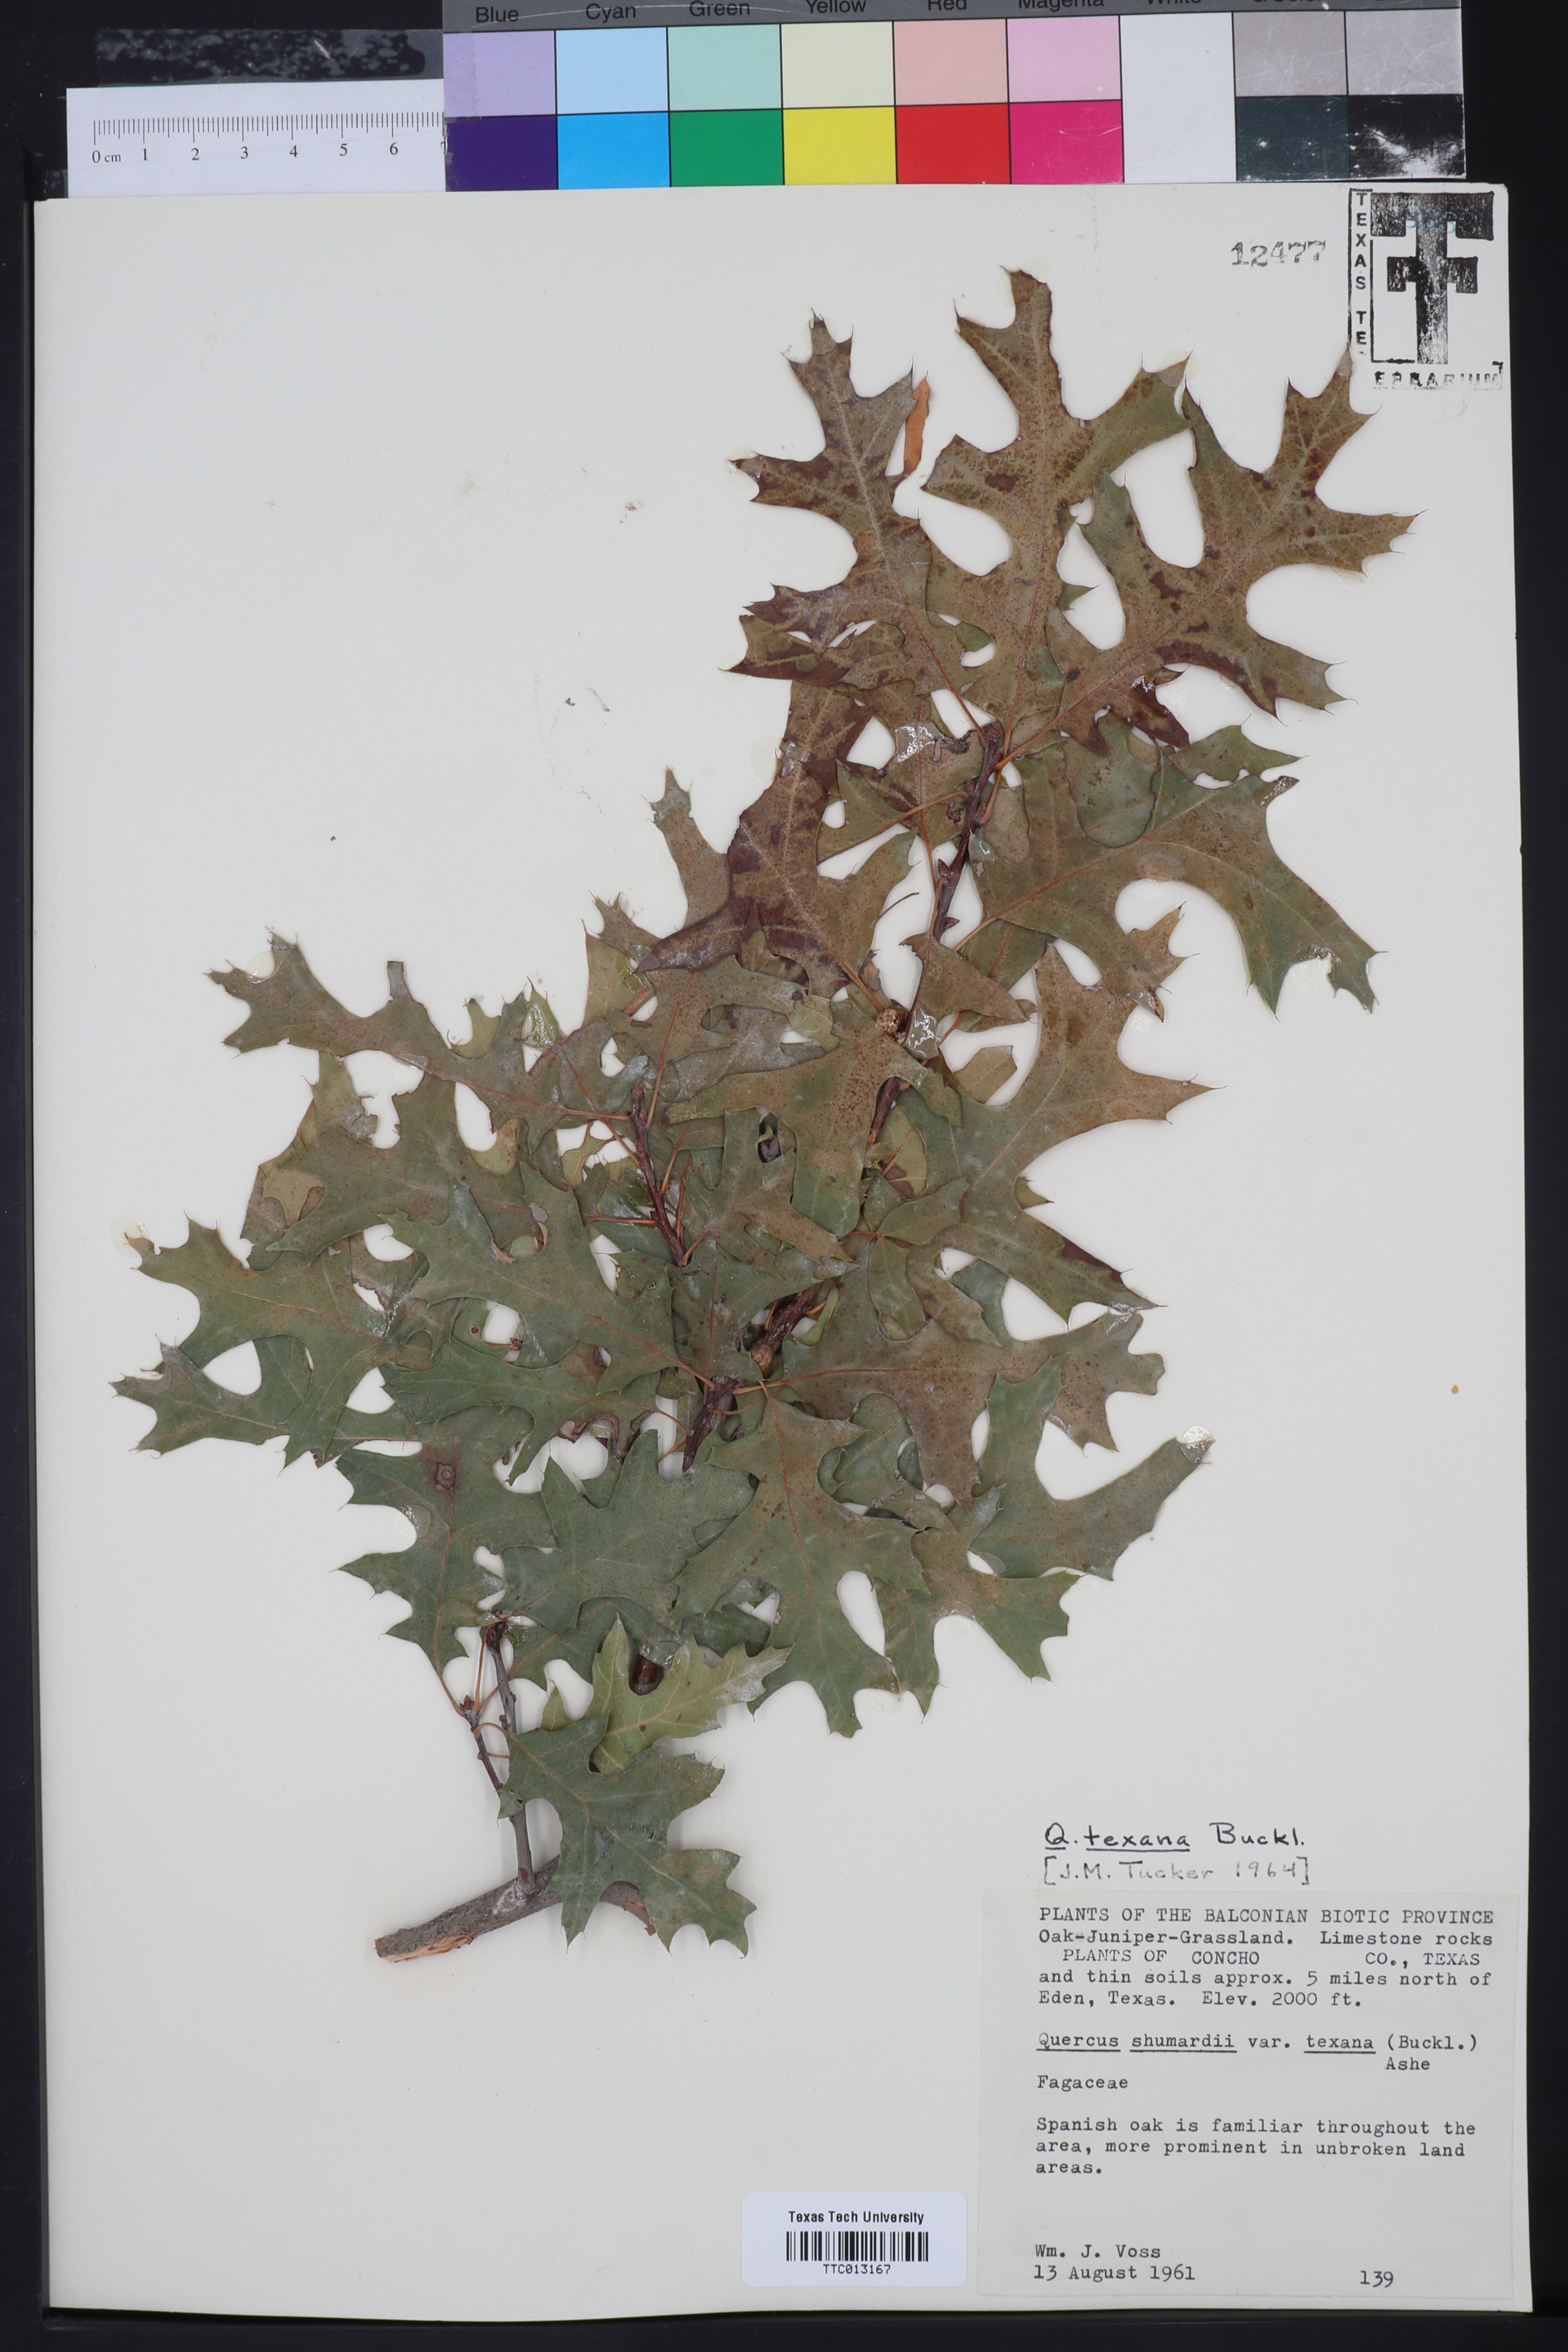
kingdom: Plantae
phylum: Tracheophyta
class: Magnoliopsida
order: Fagales
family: Fagaceae
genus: Quercus
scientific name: Quercus texana
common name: Nuttall oak
